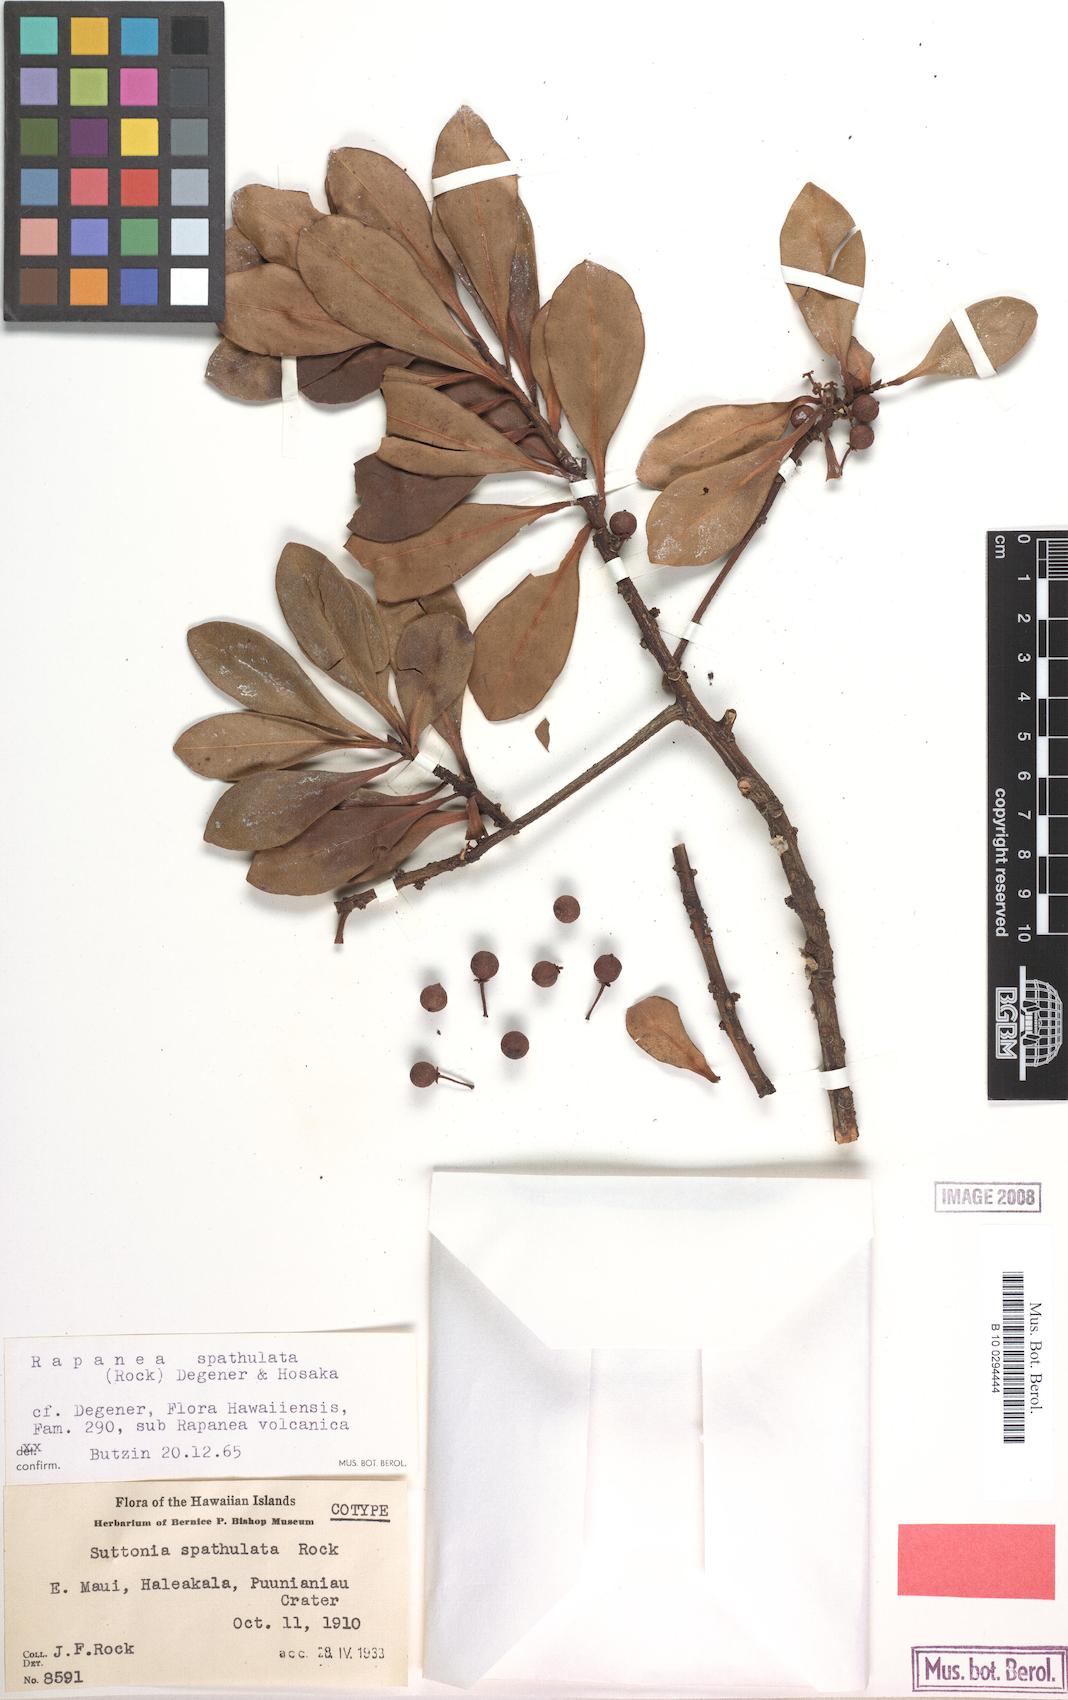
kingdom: Plantae
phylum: Tracheophyta
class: Magnoliopsida
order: Ericales
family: Primulaceae
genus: Myrsine
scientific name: Myrsine lessertiana
